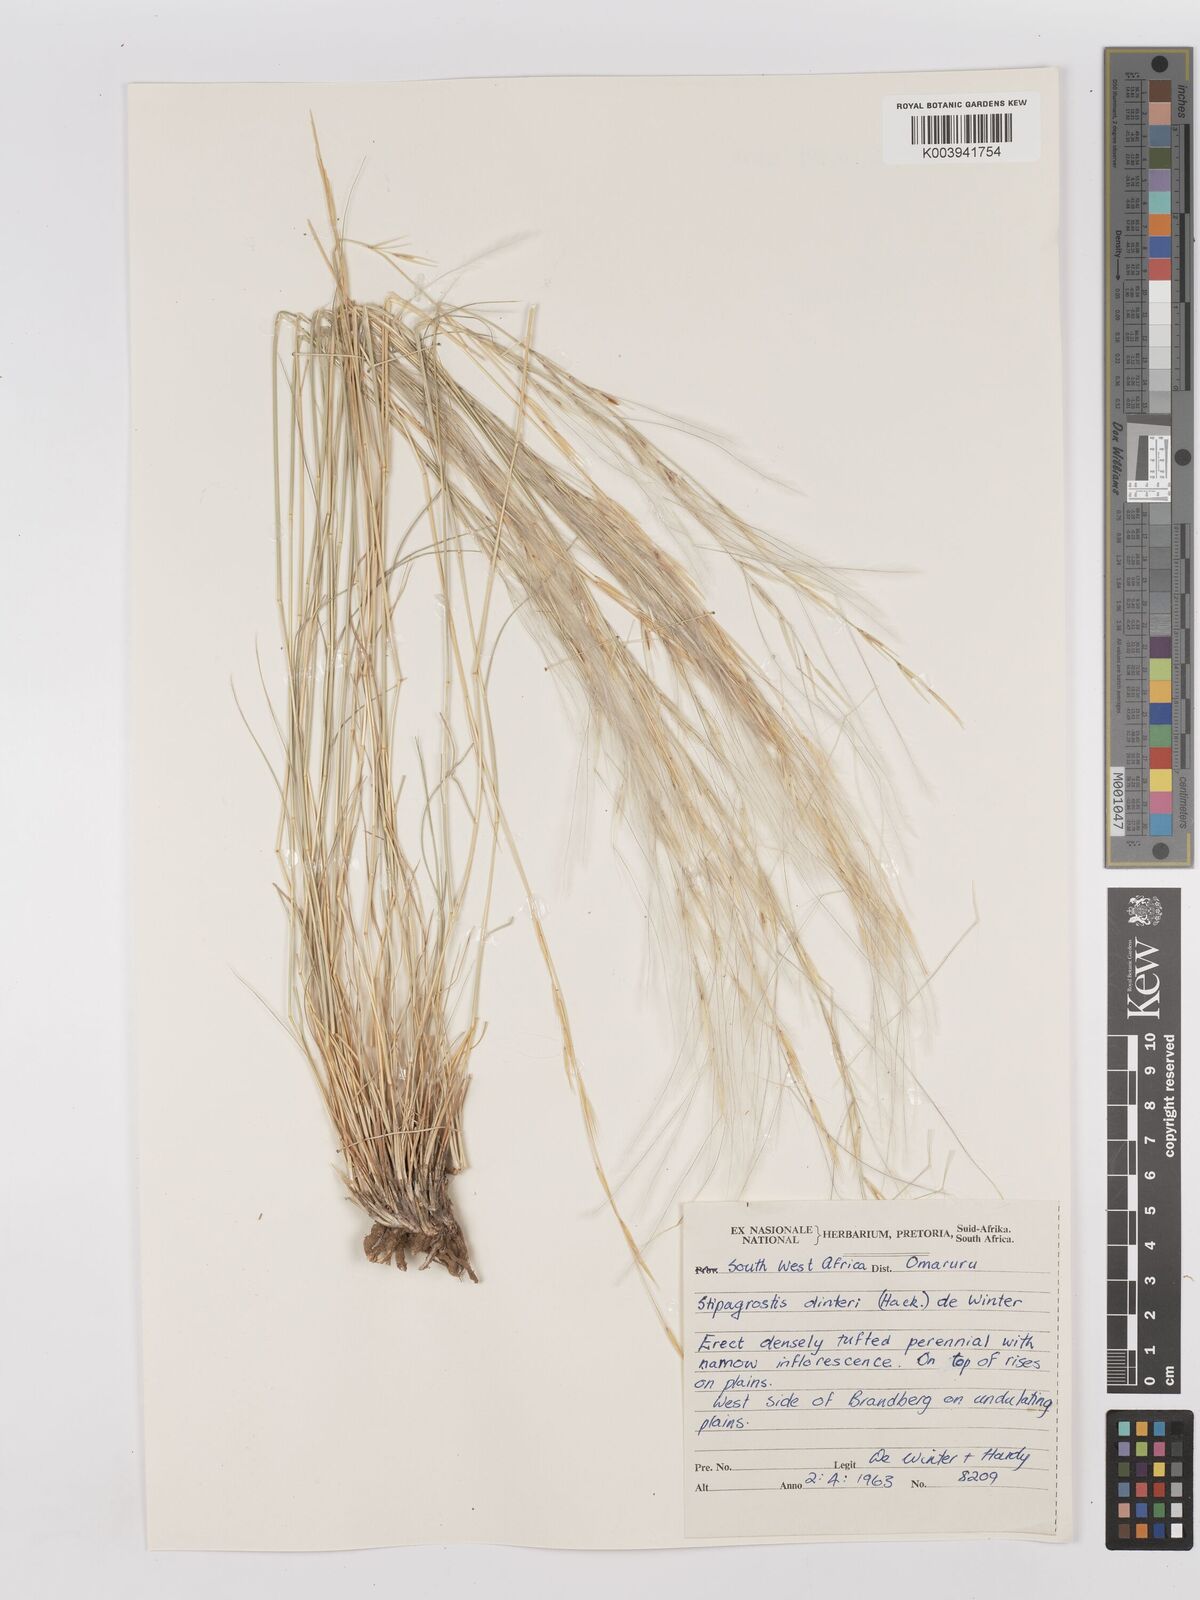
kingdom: Plantae
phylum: Tracheophyta
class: Liliopsida
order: Poales
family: Poaceae
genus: Stipagrostis
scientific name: Stipagrostis dinteri
